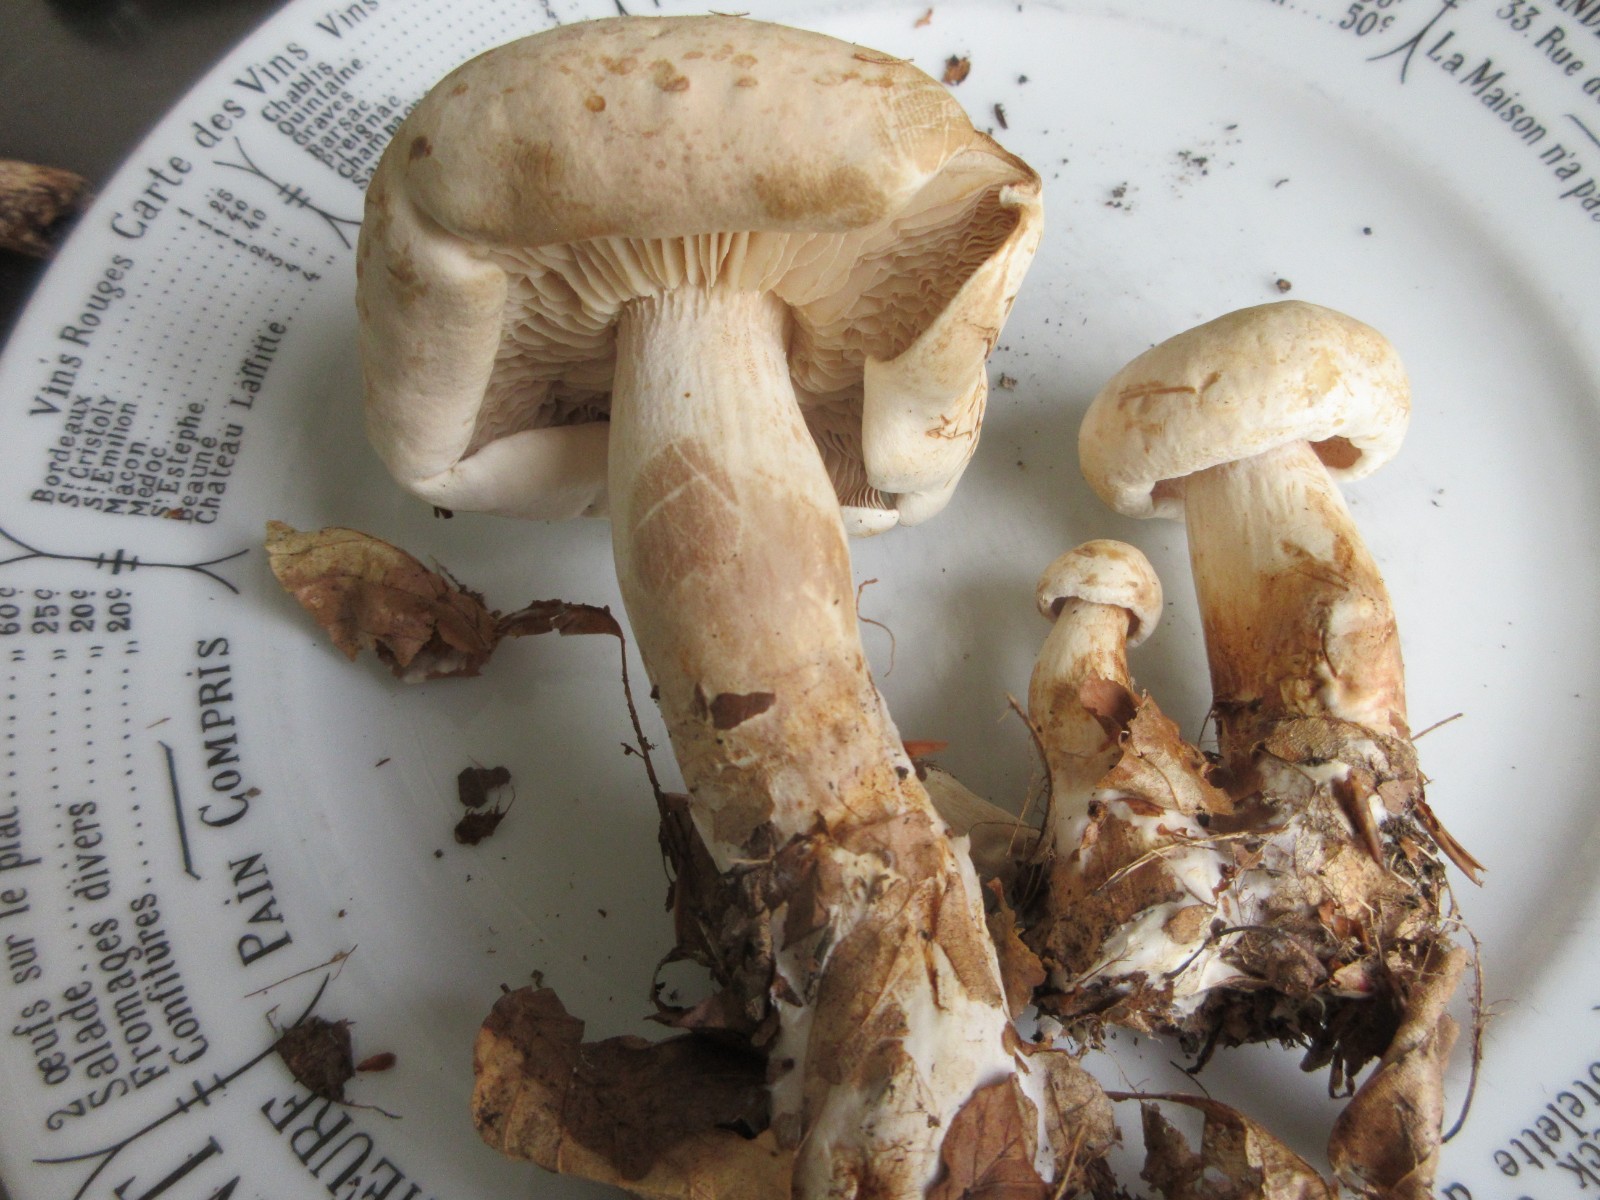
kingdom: Fungi
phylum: Basidiomycota
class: Agaricomycetes
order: Agaricales
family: Tricholomataceae
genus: Tricholoma
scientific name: Tricholoma lascivum
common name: stinkende ridderhat
